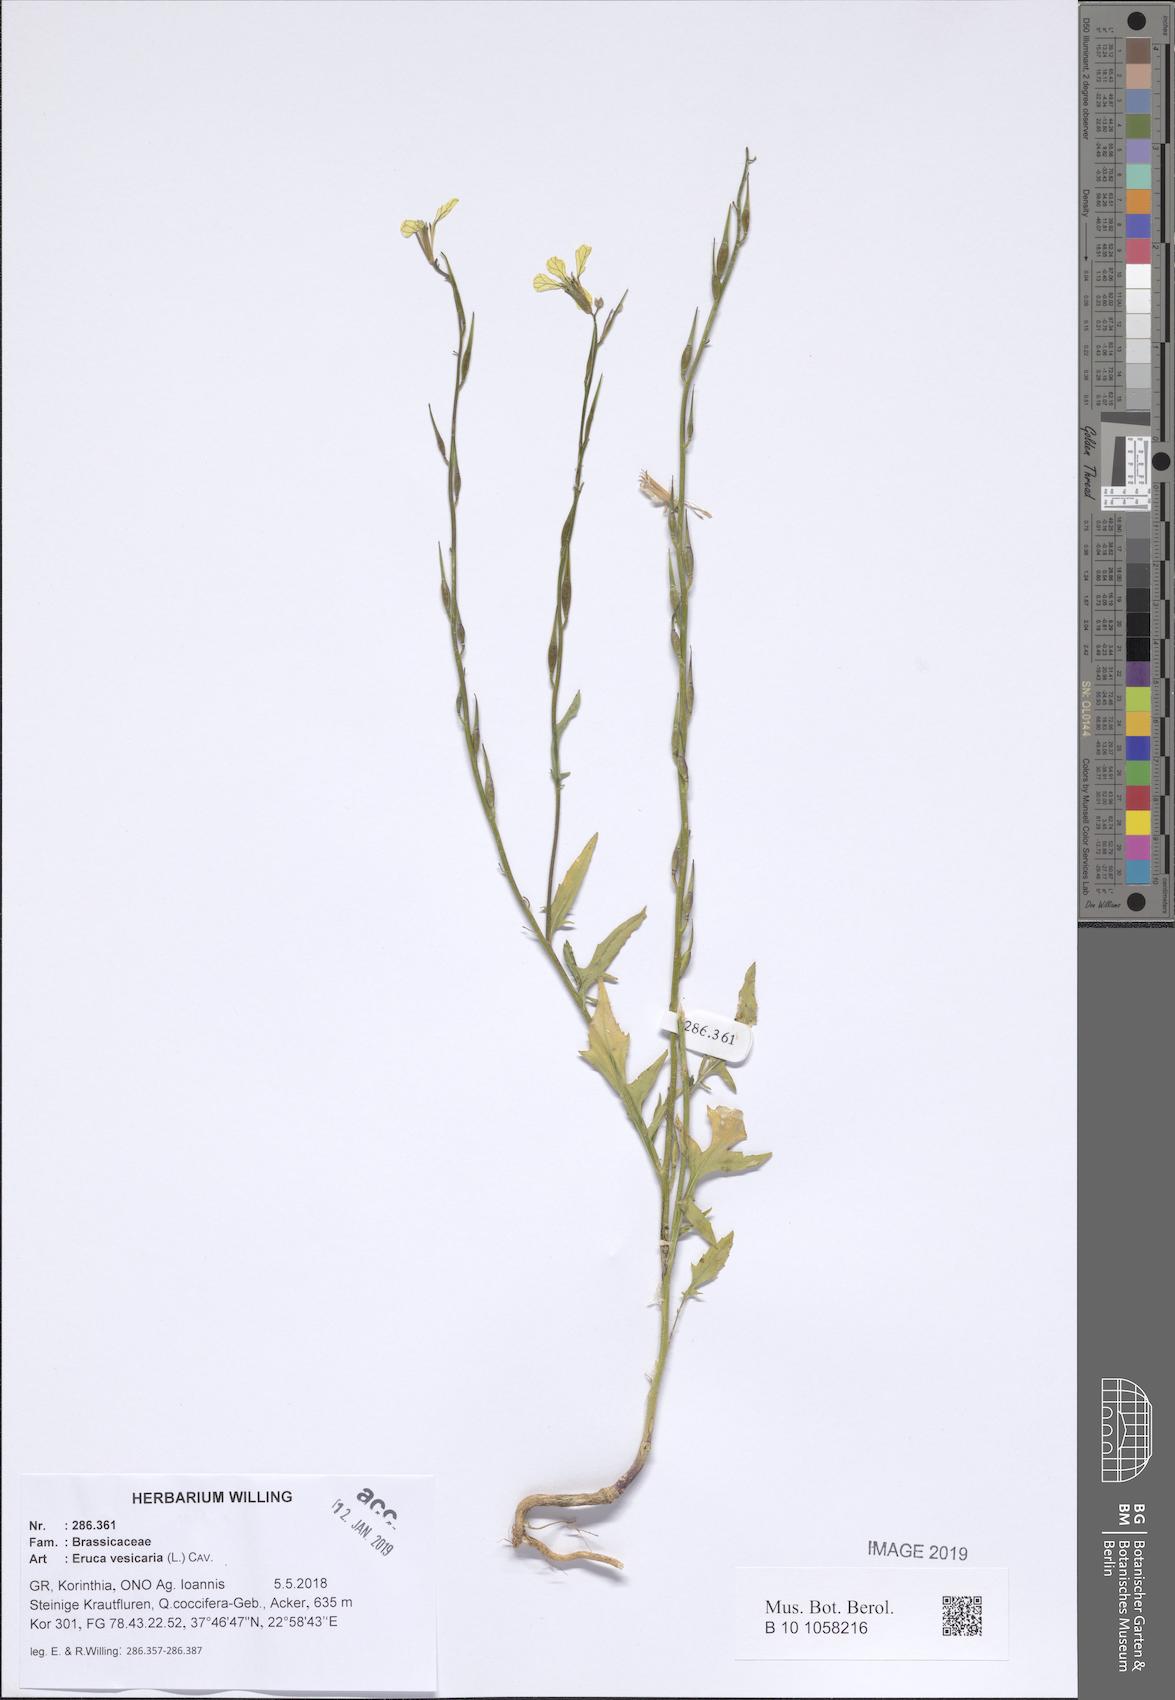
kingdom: Plantae
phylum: Tracheophyta
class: Magnoliopsida
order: Brassicales
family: Brassicaceae
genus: Eruca
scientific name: Eruca vesicaria
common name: Garden rocket
